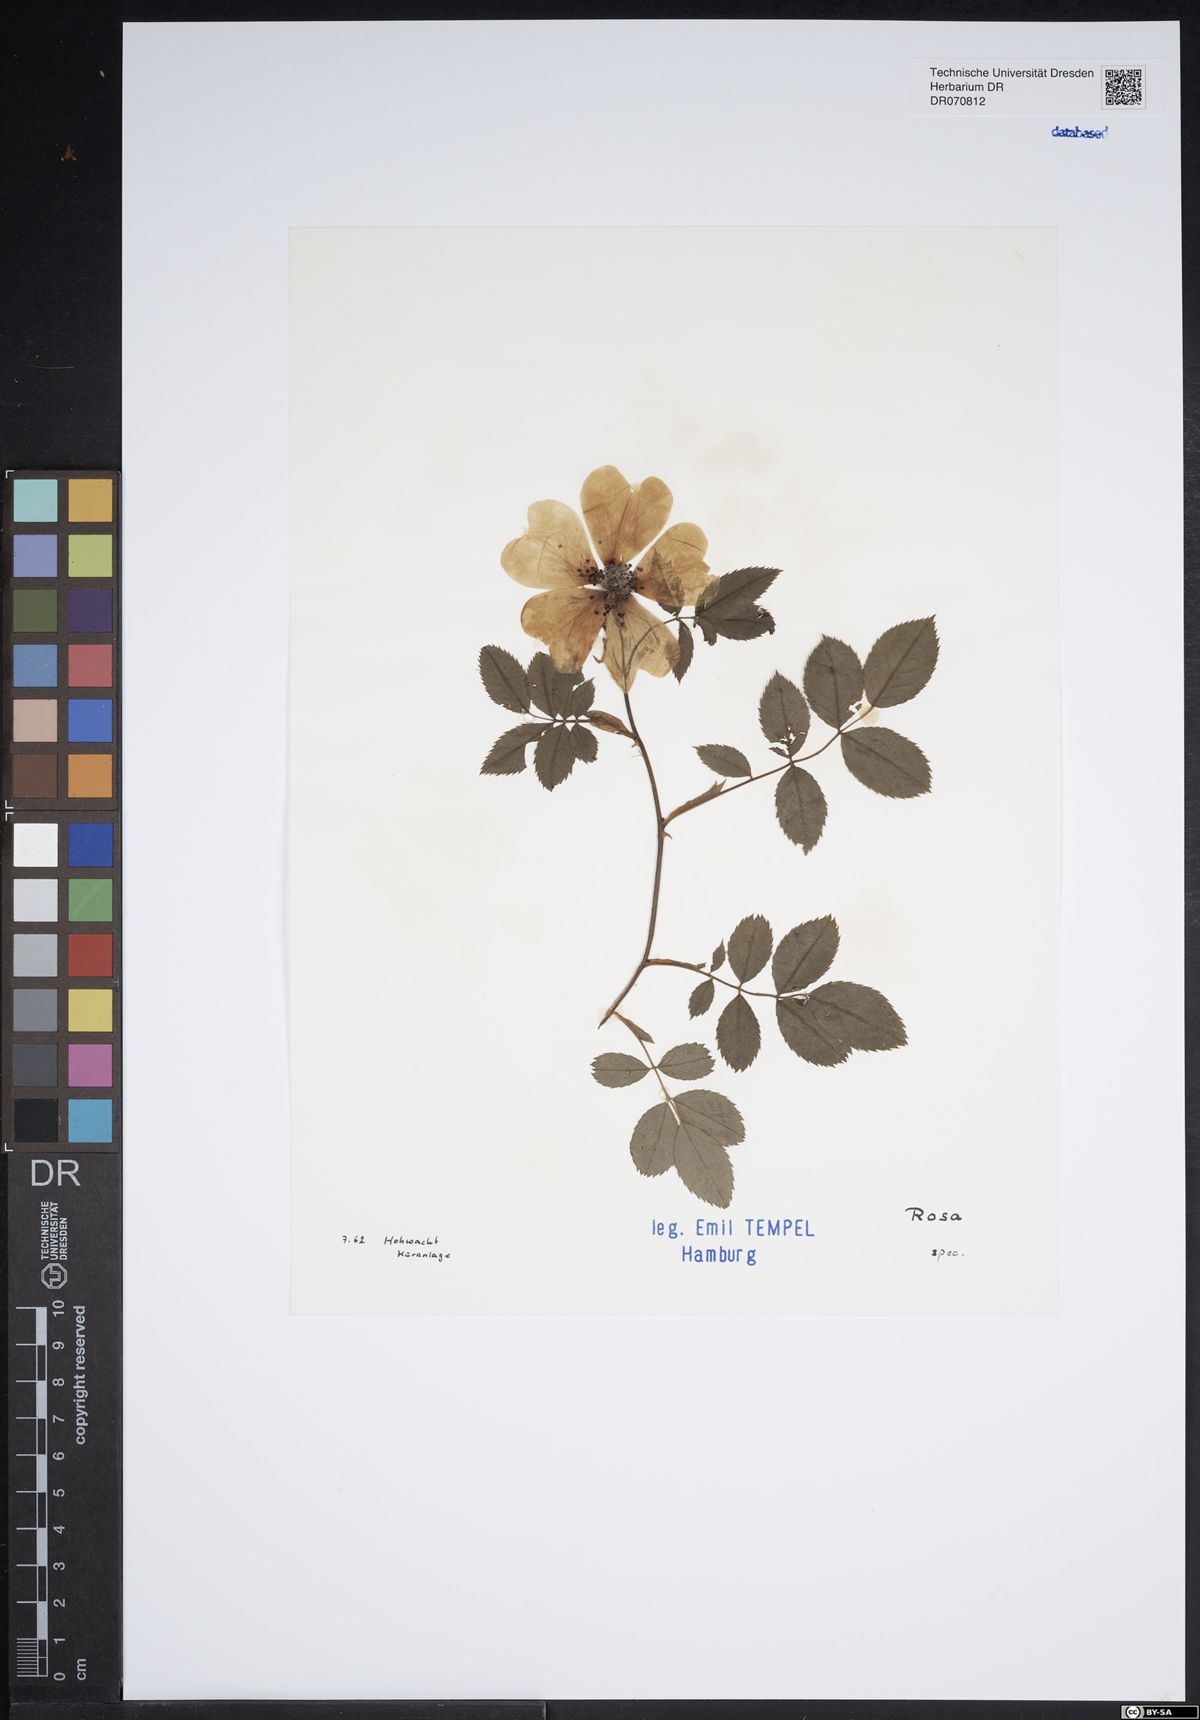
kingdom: Plantae
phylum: Tracheophyta
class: Magnoliopsida
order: Rosales
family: Rosaceae
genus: Rosa
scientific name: Rosa
